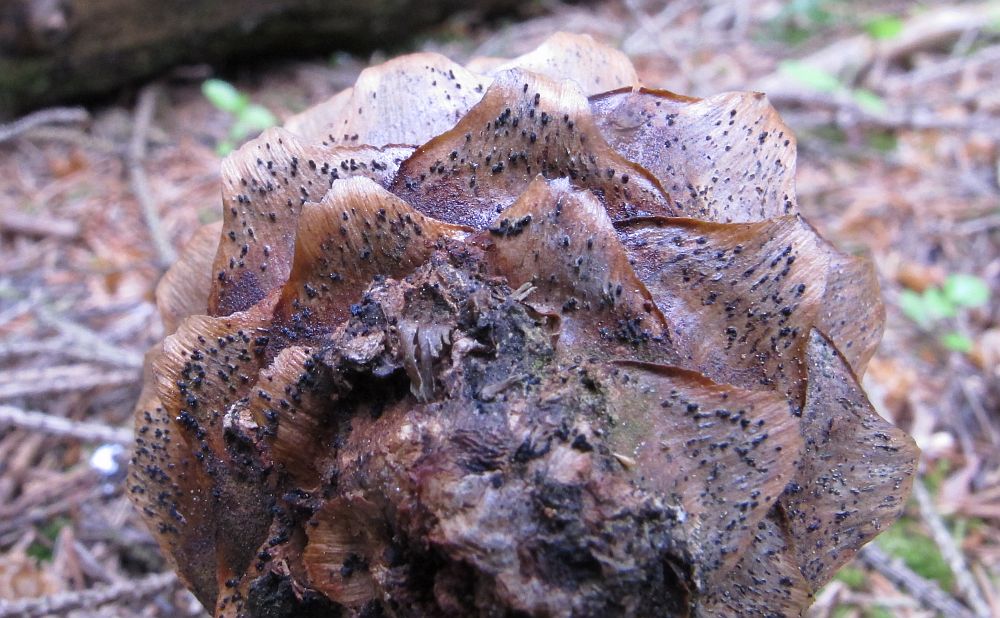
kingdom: Fungi
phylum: Ascomycota
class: Sordariomycetes
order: Diaporthales
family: Gnomoniaceae
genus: Sirococcus
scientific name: Sirococcus conigenus
